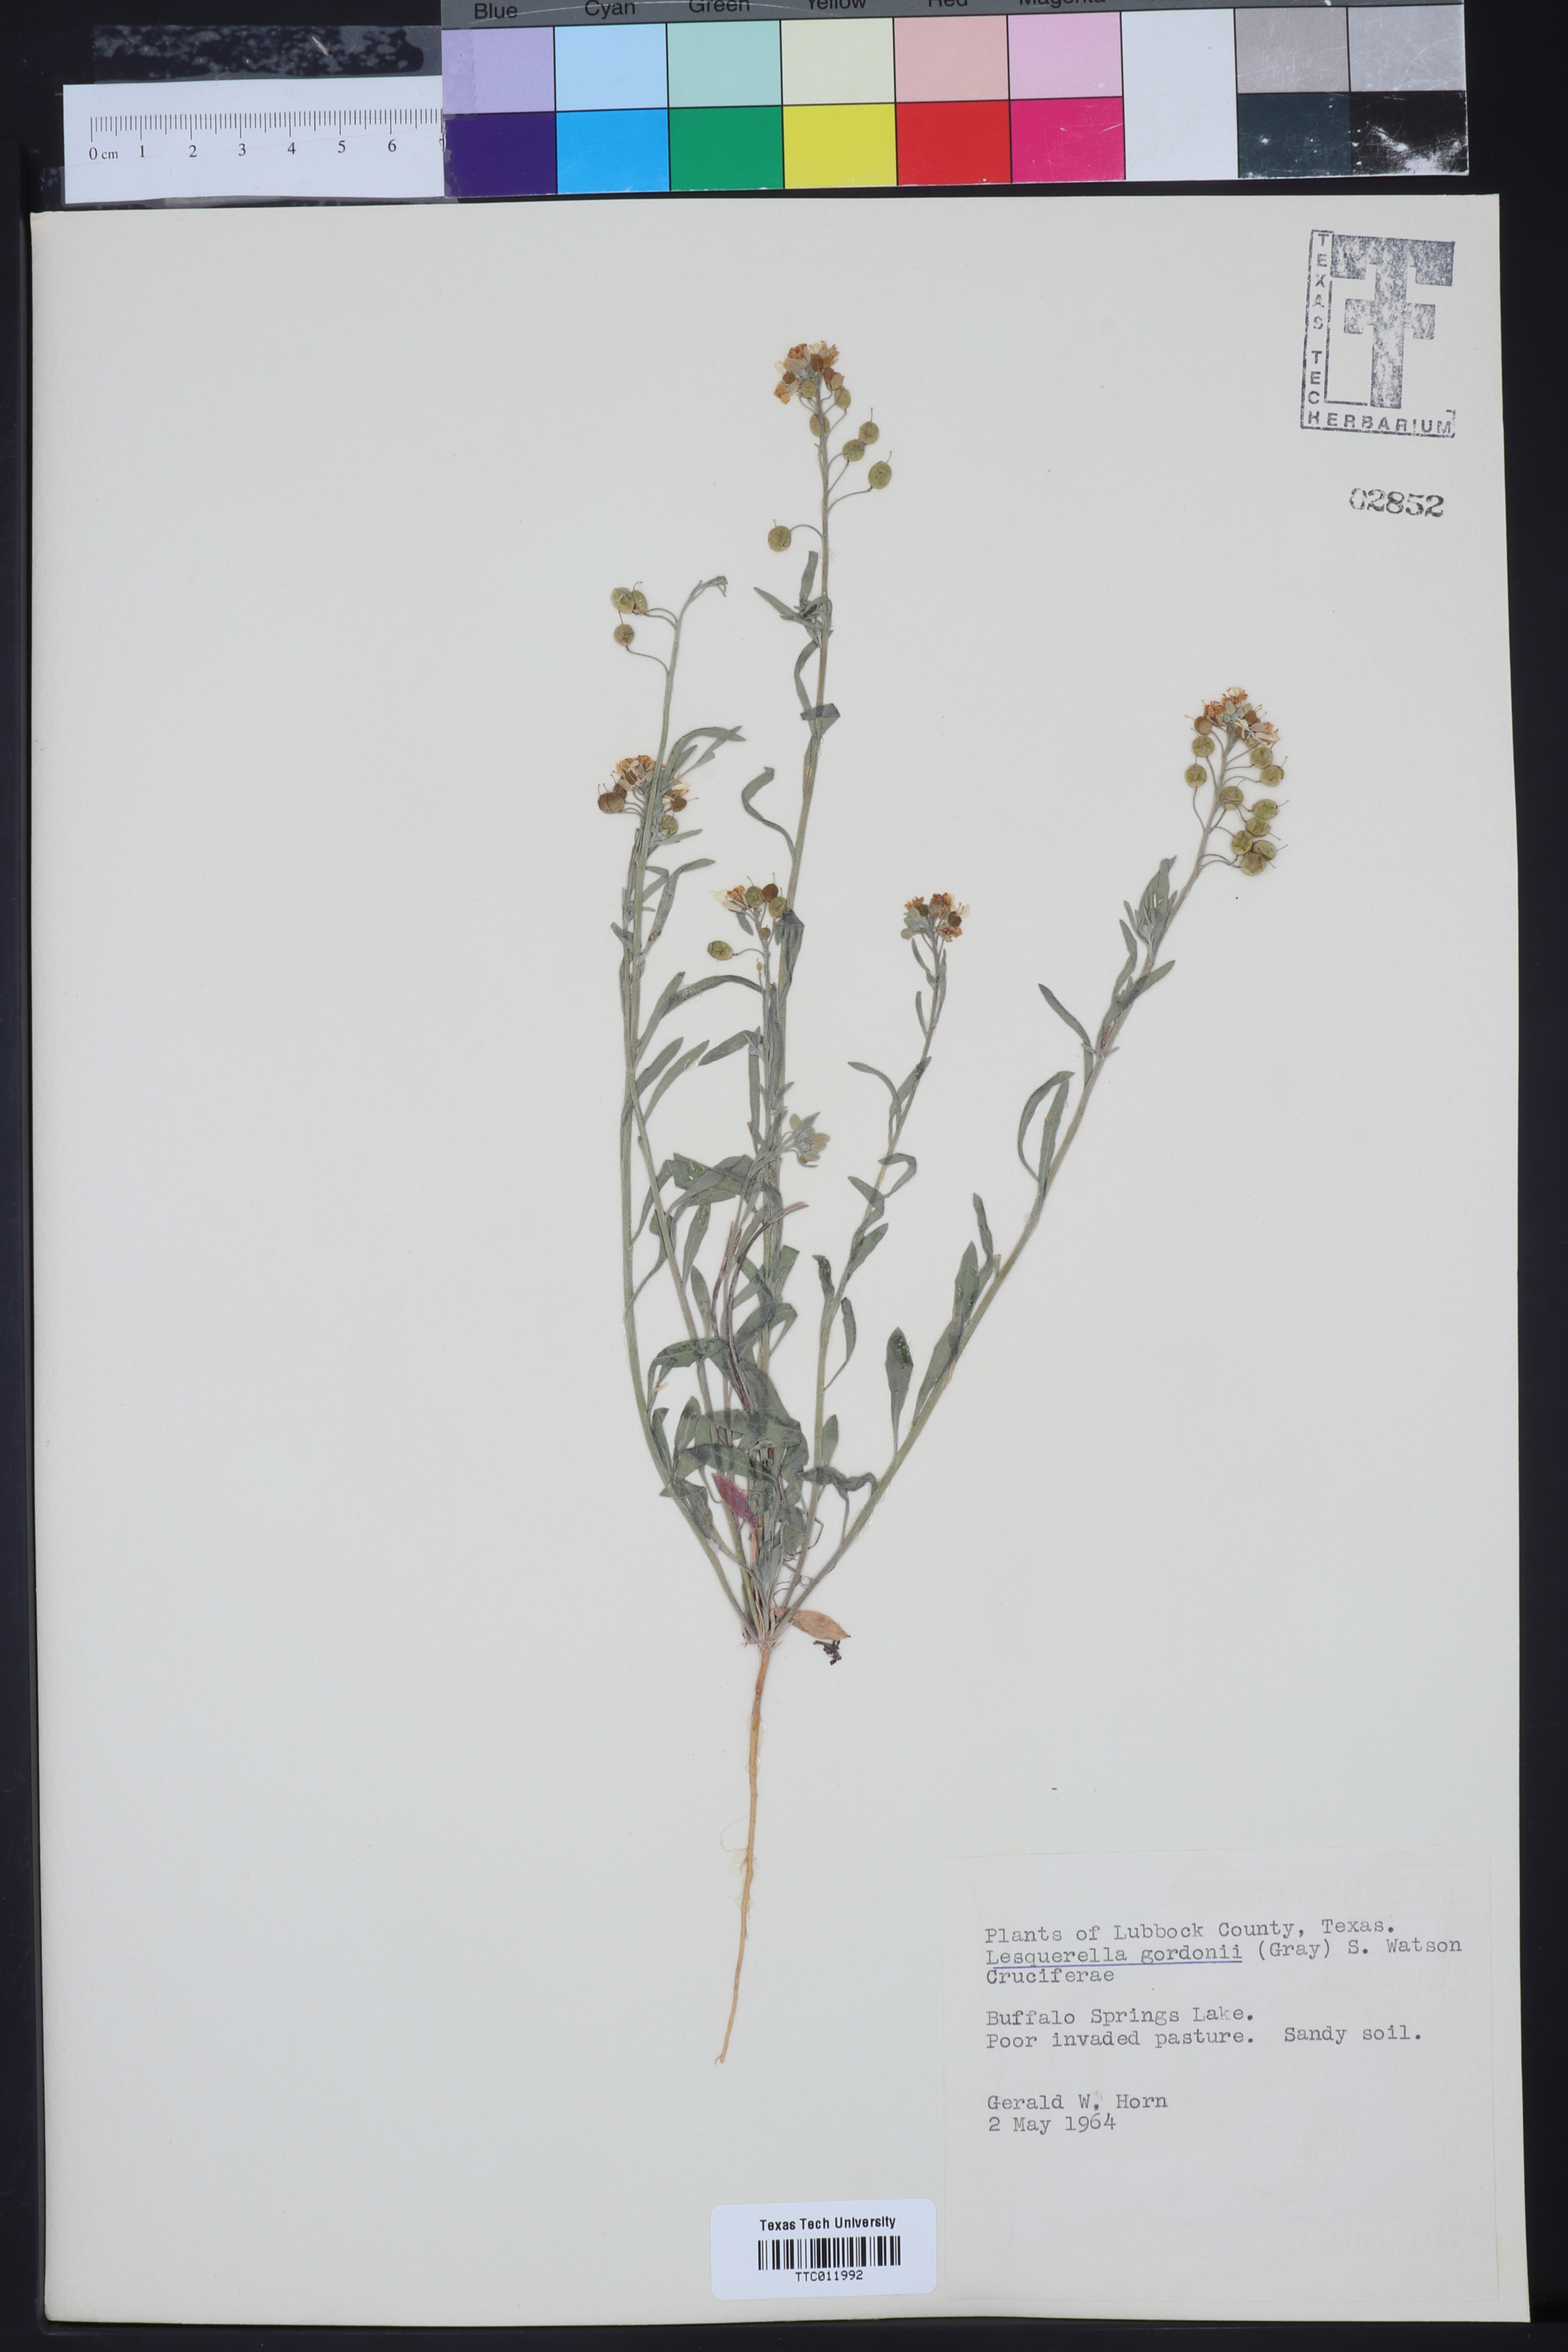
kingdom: Plantae
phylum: Tracheophyta
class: Magnoliopsida
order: Brassicales
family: Brassicaceae
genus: Physaria
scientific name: Physaria gordonii
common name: Gordon's bladderpod
